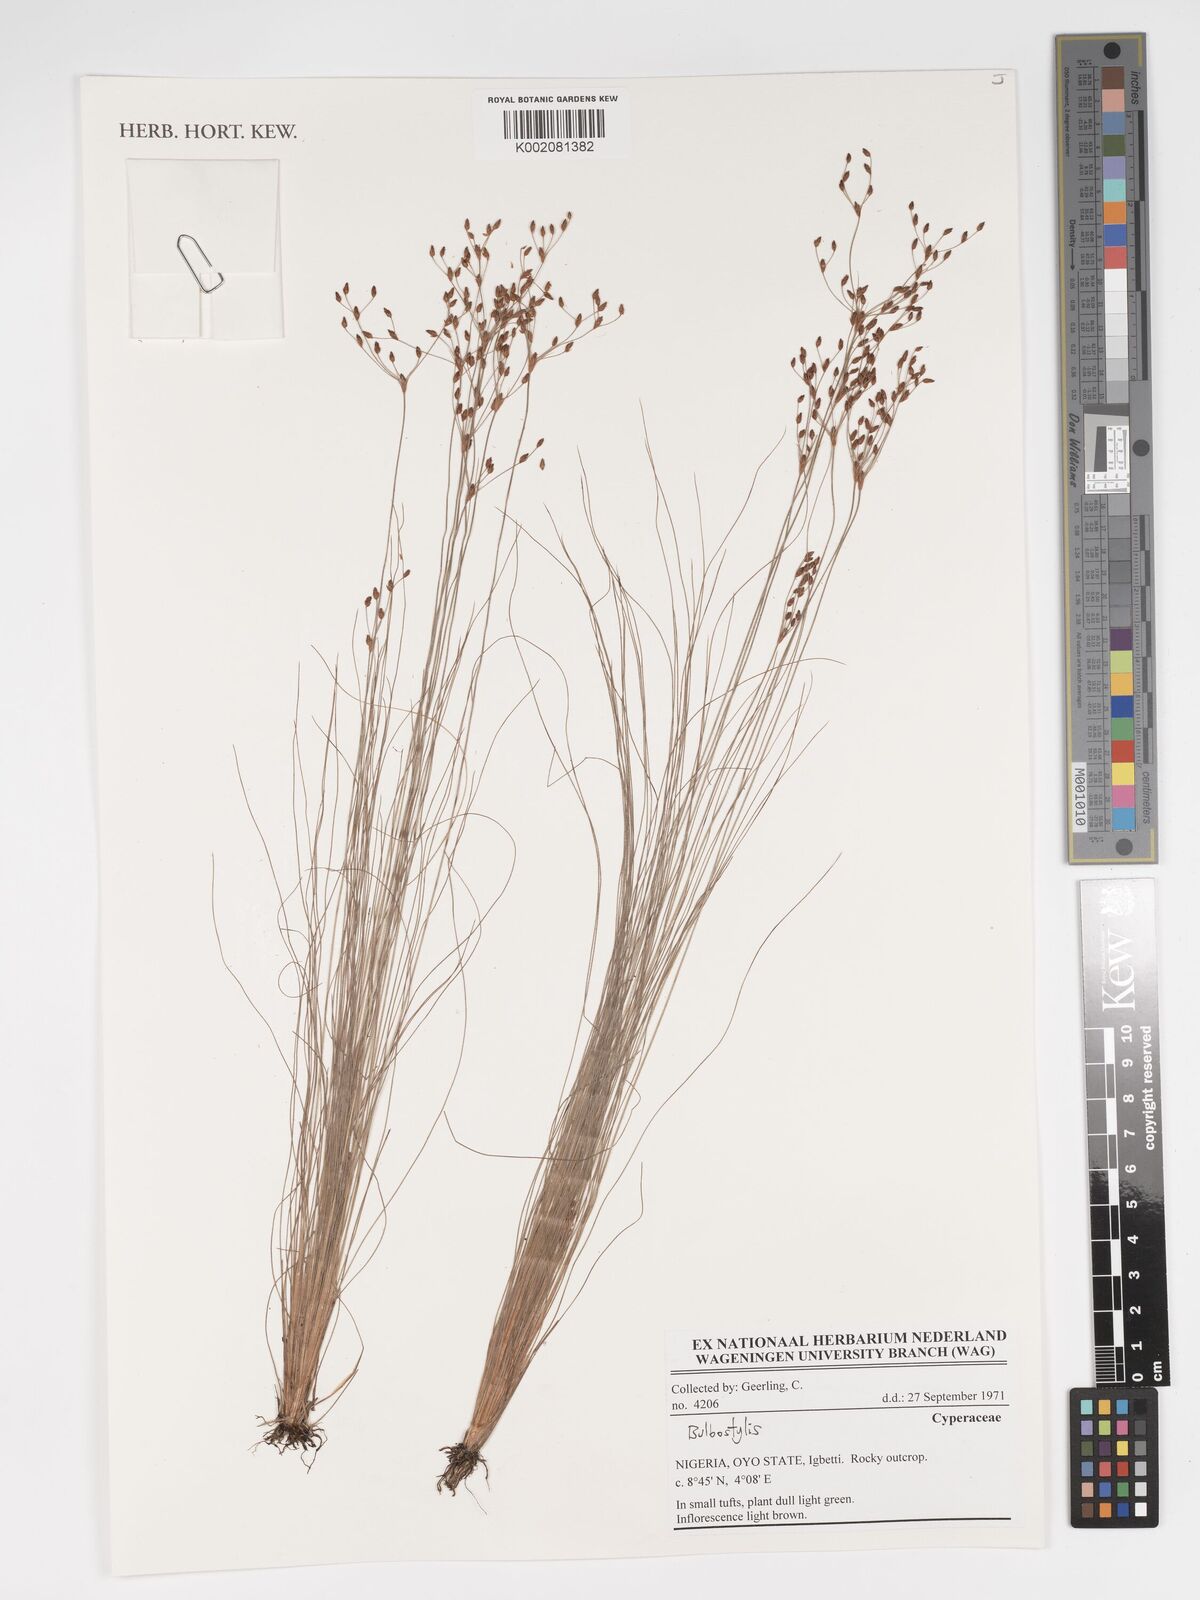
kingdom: Plantae
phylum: Tracheophyta
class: Liliopsida
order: Poales
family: Cyperaceae
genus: Bulbostylis
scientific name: Bulbostylis
